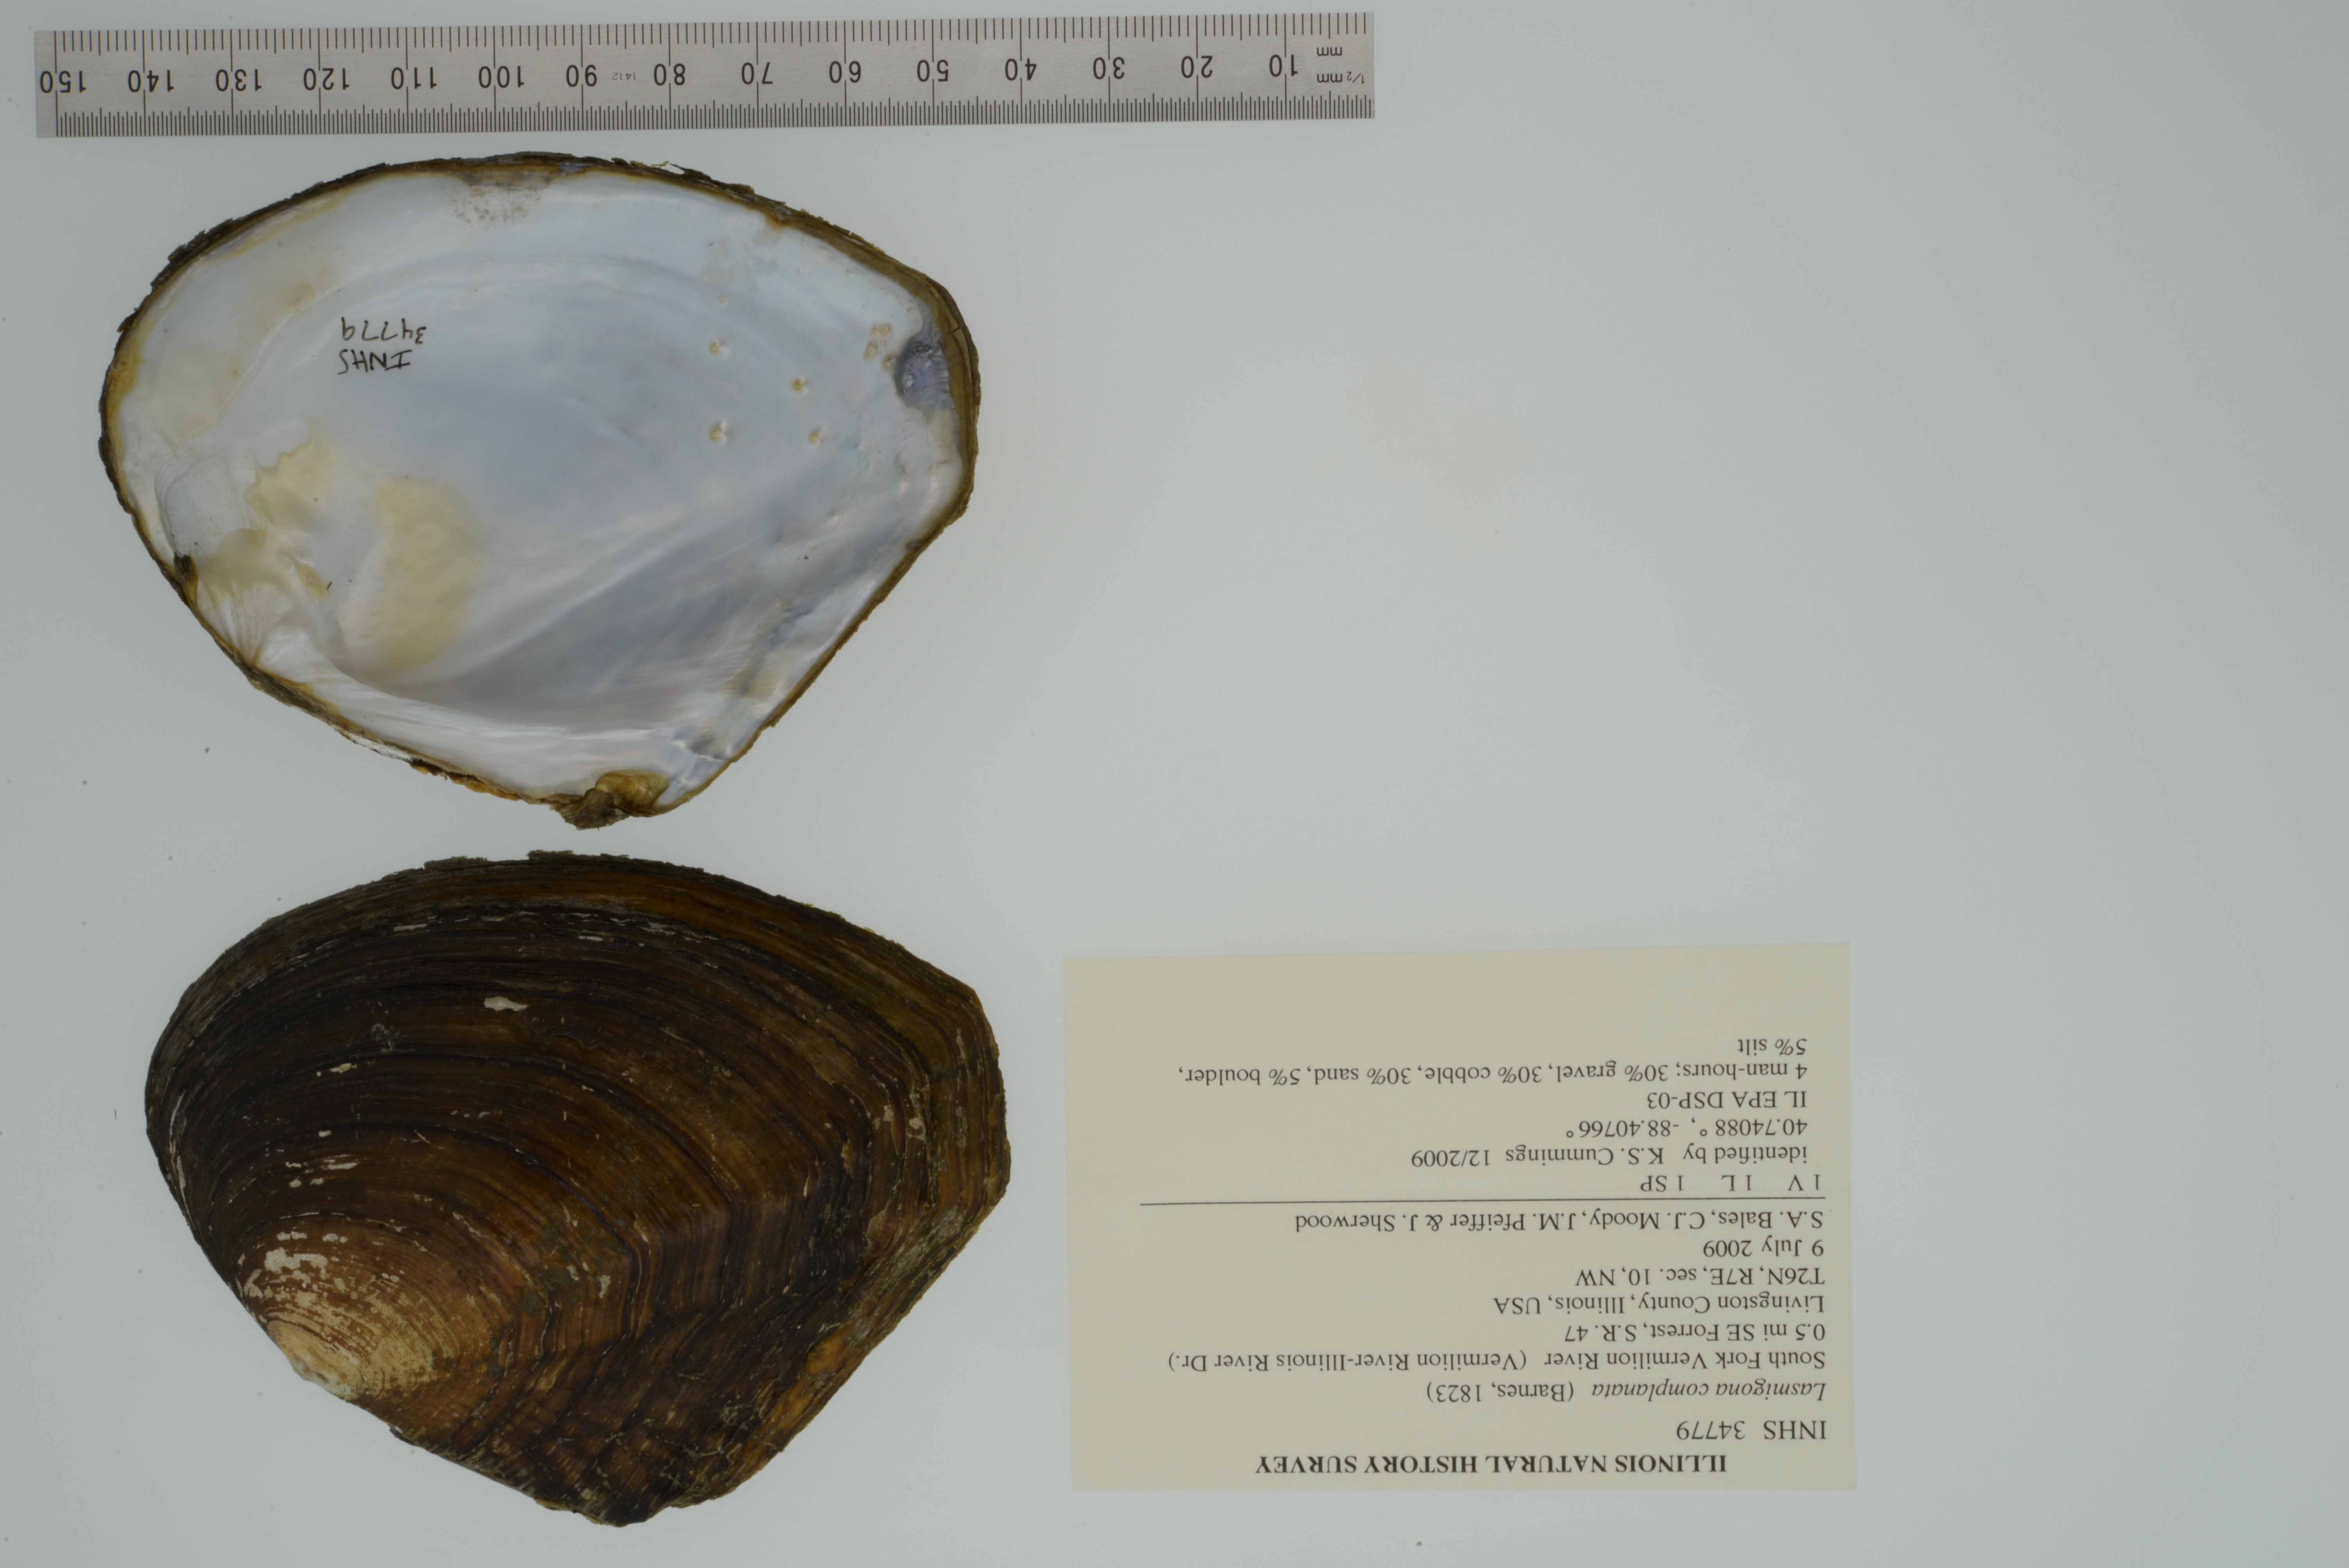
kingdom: Animalia
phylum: Mollusca
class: Bivalvia
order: Unionida
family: Unionidae
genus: Lasmigona
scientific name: Lasmigona complanata
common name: White heelsplitter
